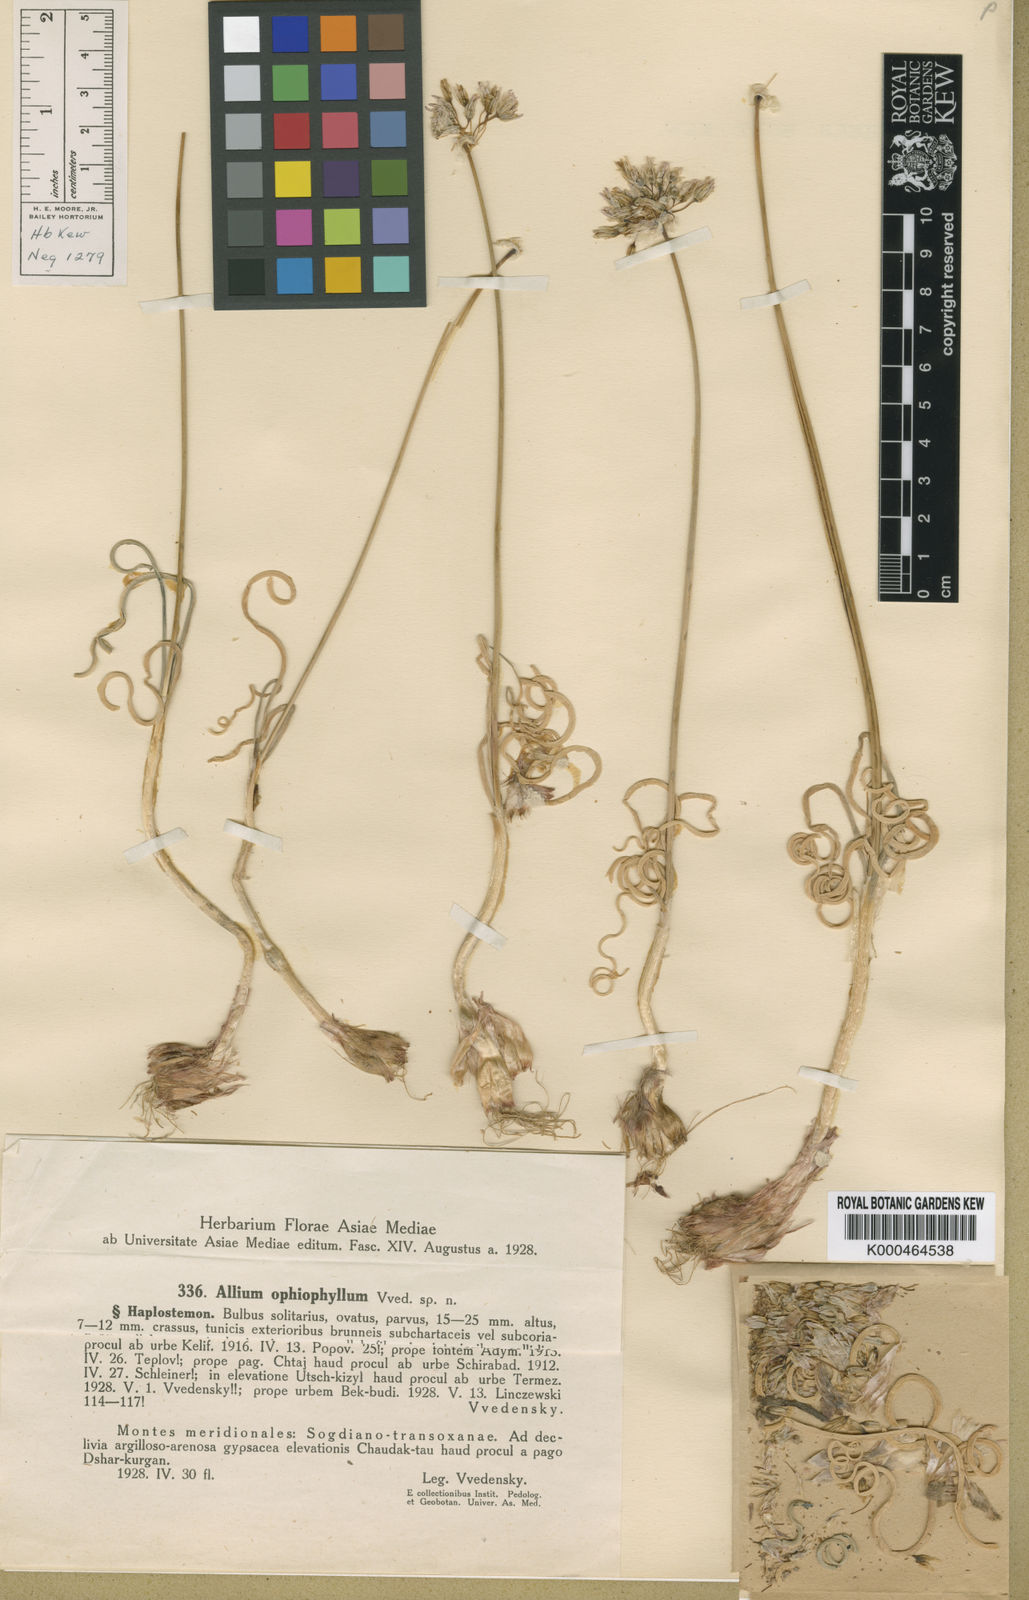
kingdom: Plantae
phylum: Tracheophyta
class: Liliopsida
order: Asparagales
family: Amaryllidaceae
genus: Allium
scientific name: Allium caeruleum
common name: Blue-of-the-heavens
